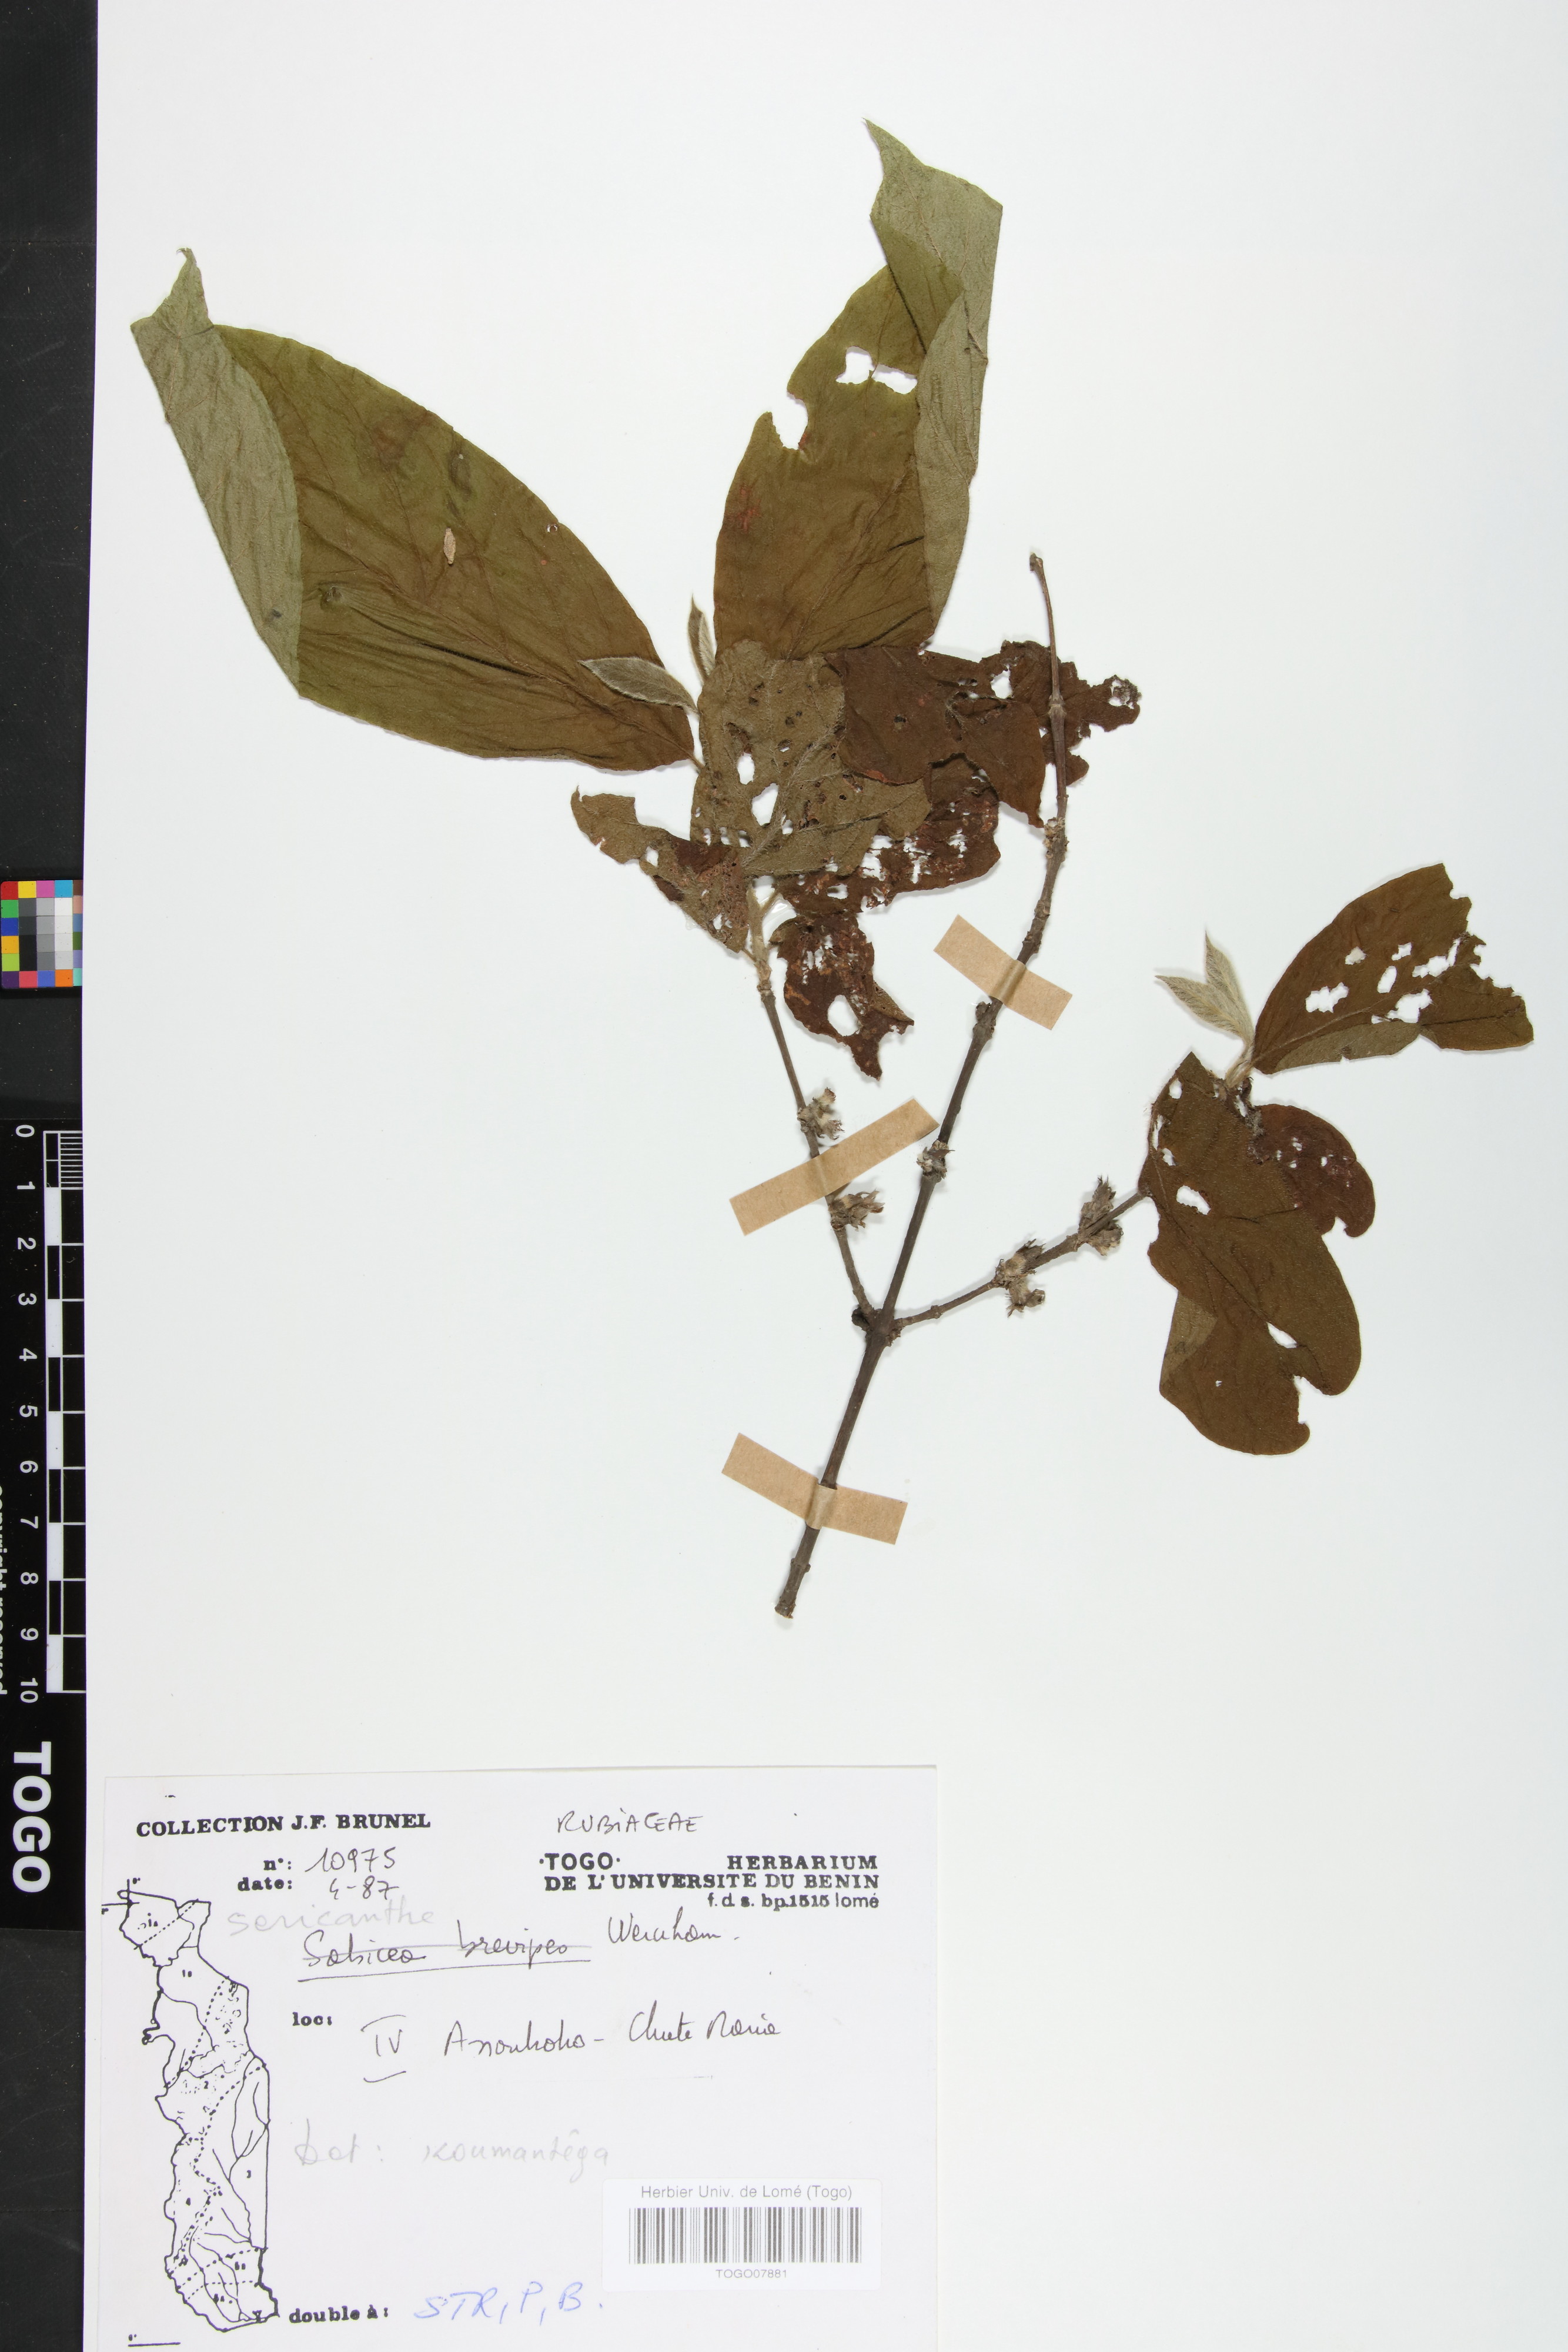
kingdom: Plantae
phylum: Tracheophyta
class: Magnoliopsida
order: Gentianales
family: Rubiaceae
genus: Sericanthe
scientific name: Sericanthe chevalieri
